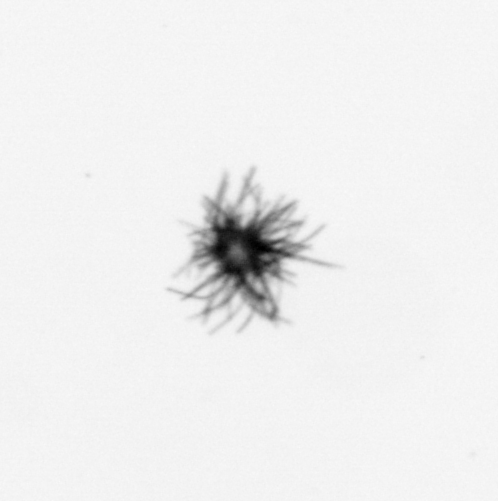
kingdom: Bacteria
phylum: Cyanobacteria
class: Cyanobacteriia
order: Cyanobacteriales
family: Microcoleaceae
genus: Trichodesmium
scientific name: Trichodesmium
